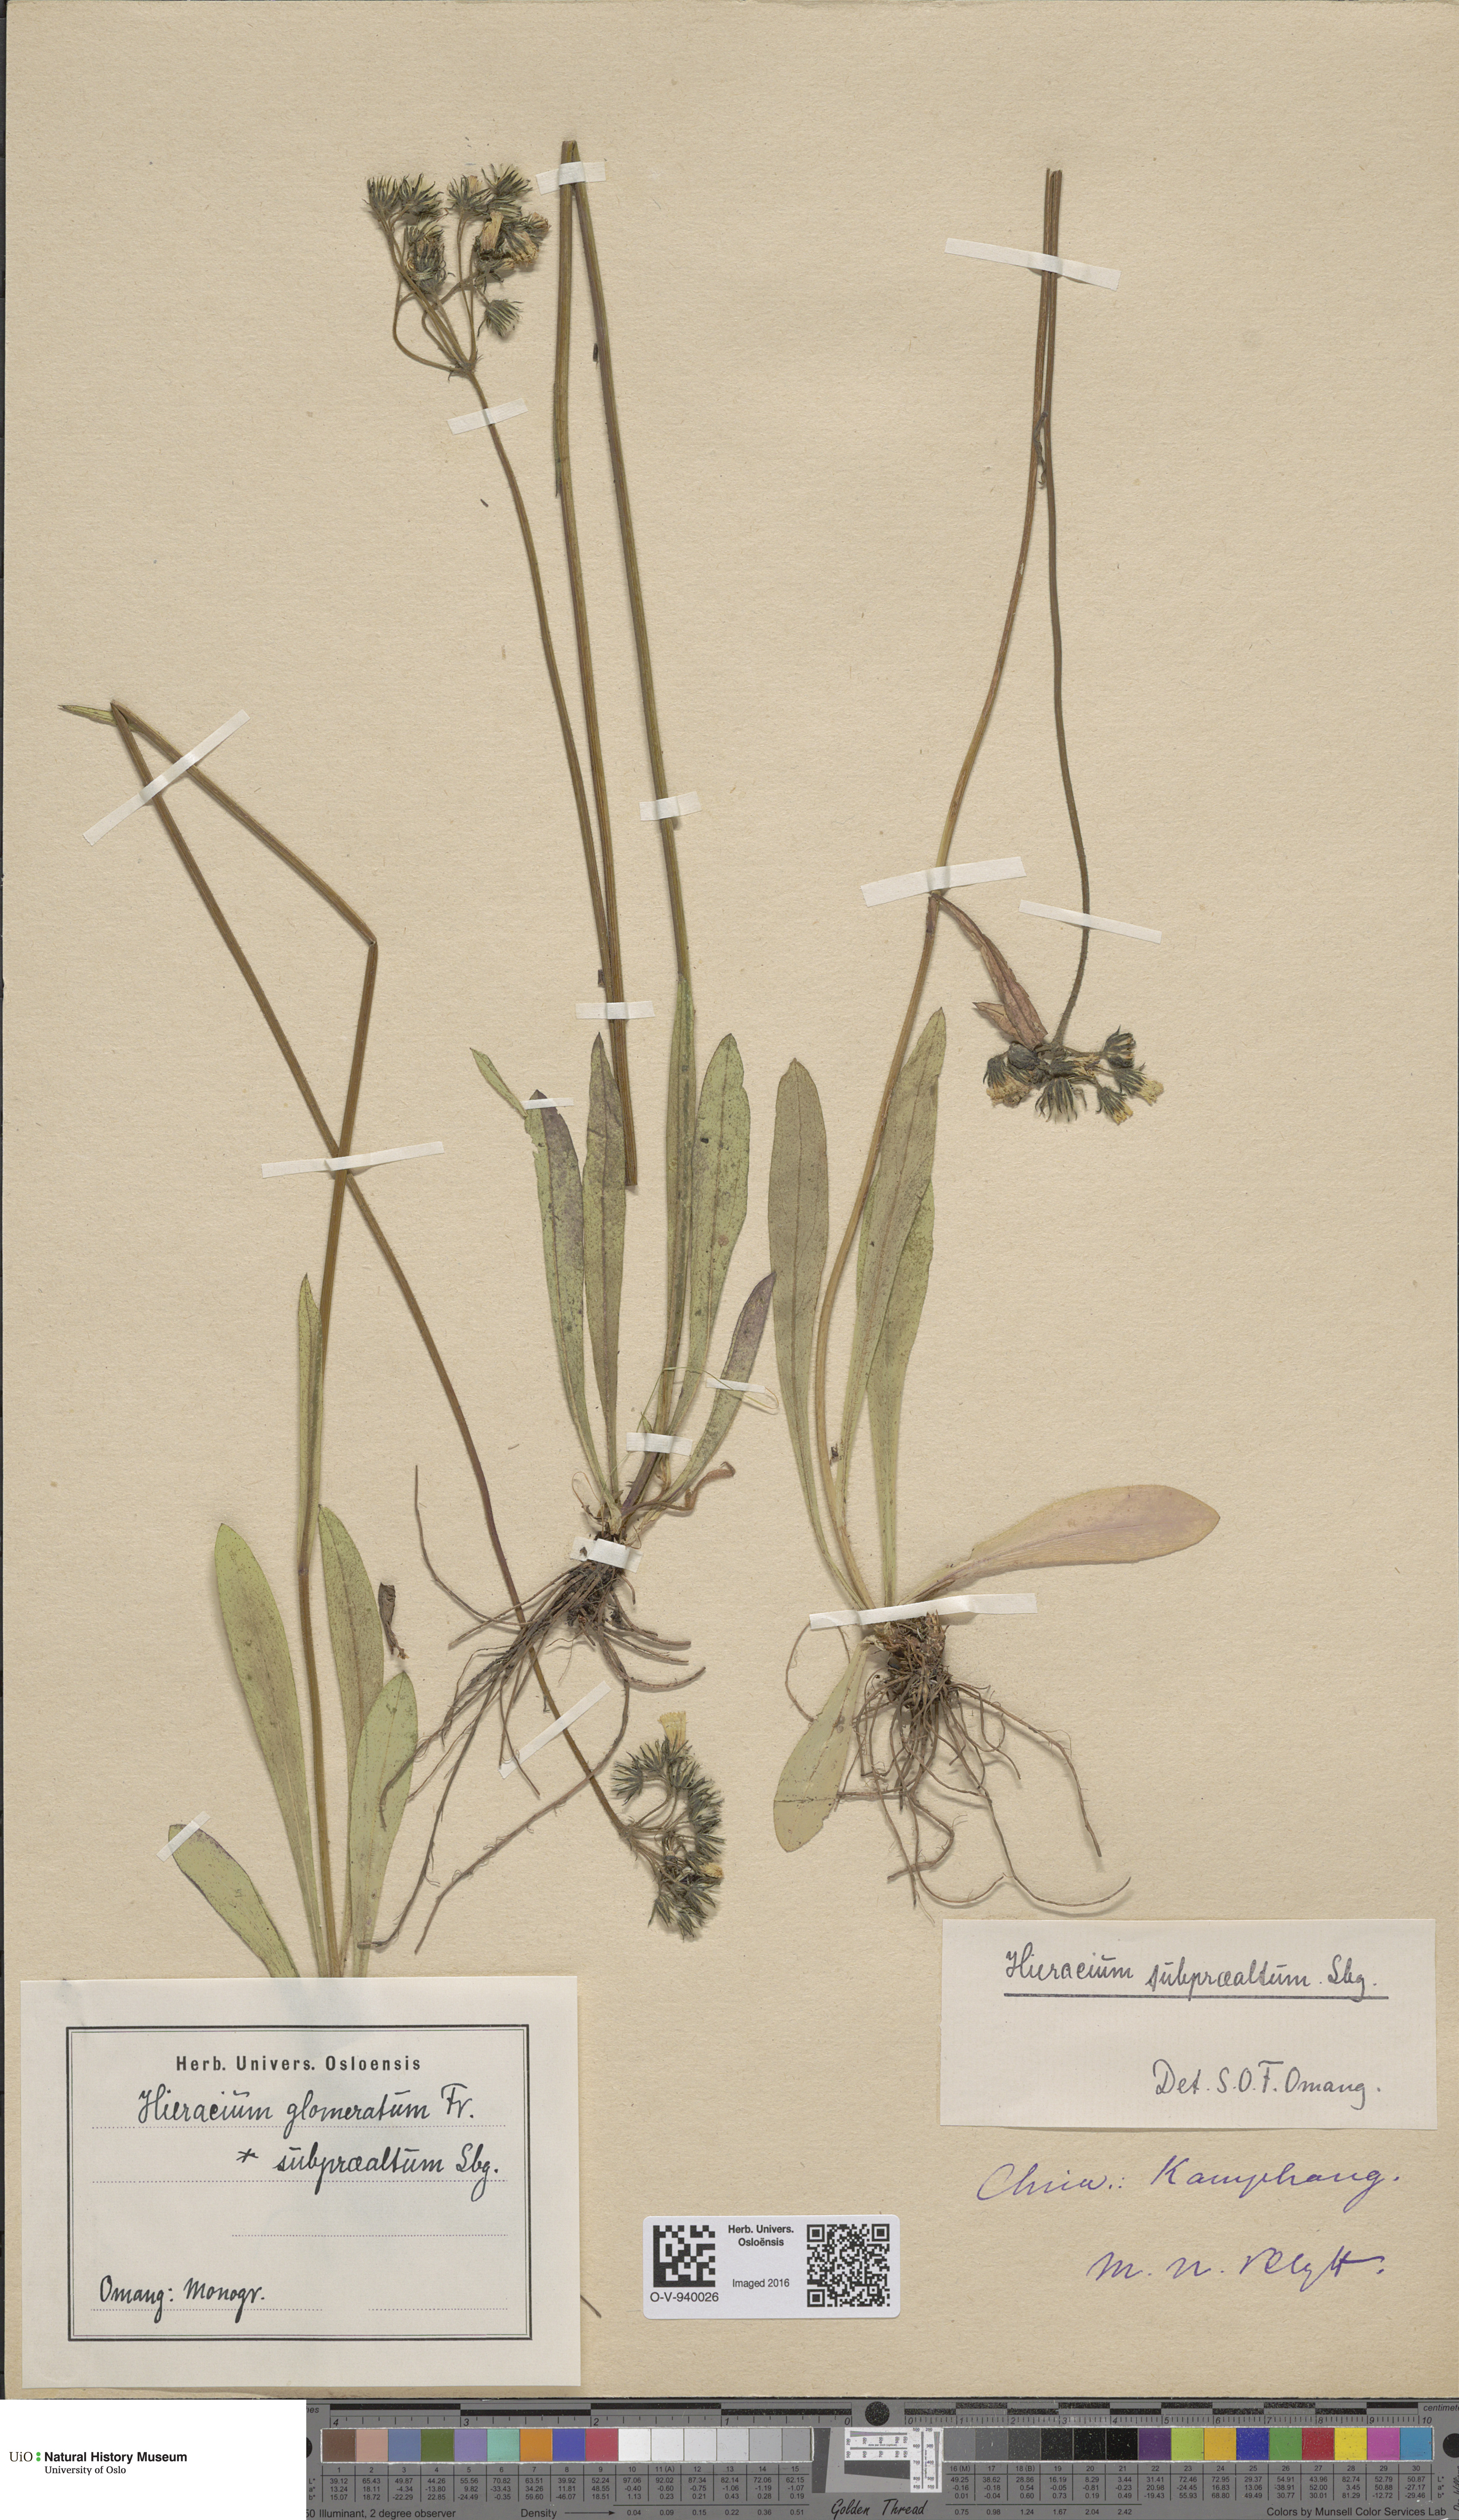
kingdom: Plantae
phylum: Tracheophyta
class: Magnoliopsida
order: Asterales
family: Asteraceae
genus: Pilosella
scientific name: Pilosella glomerata
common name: Queen devil hawkweed
